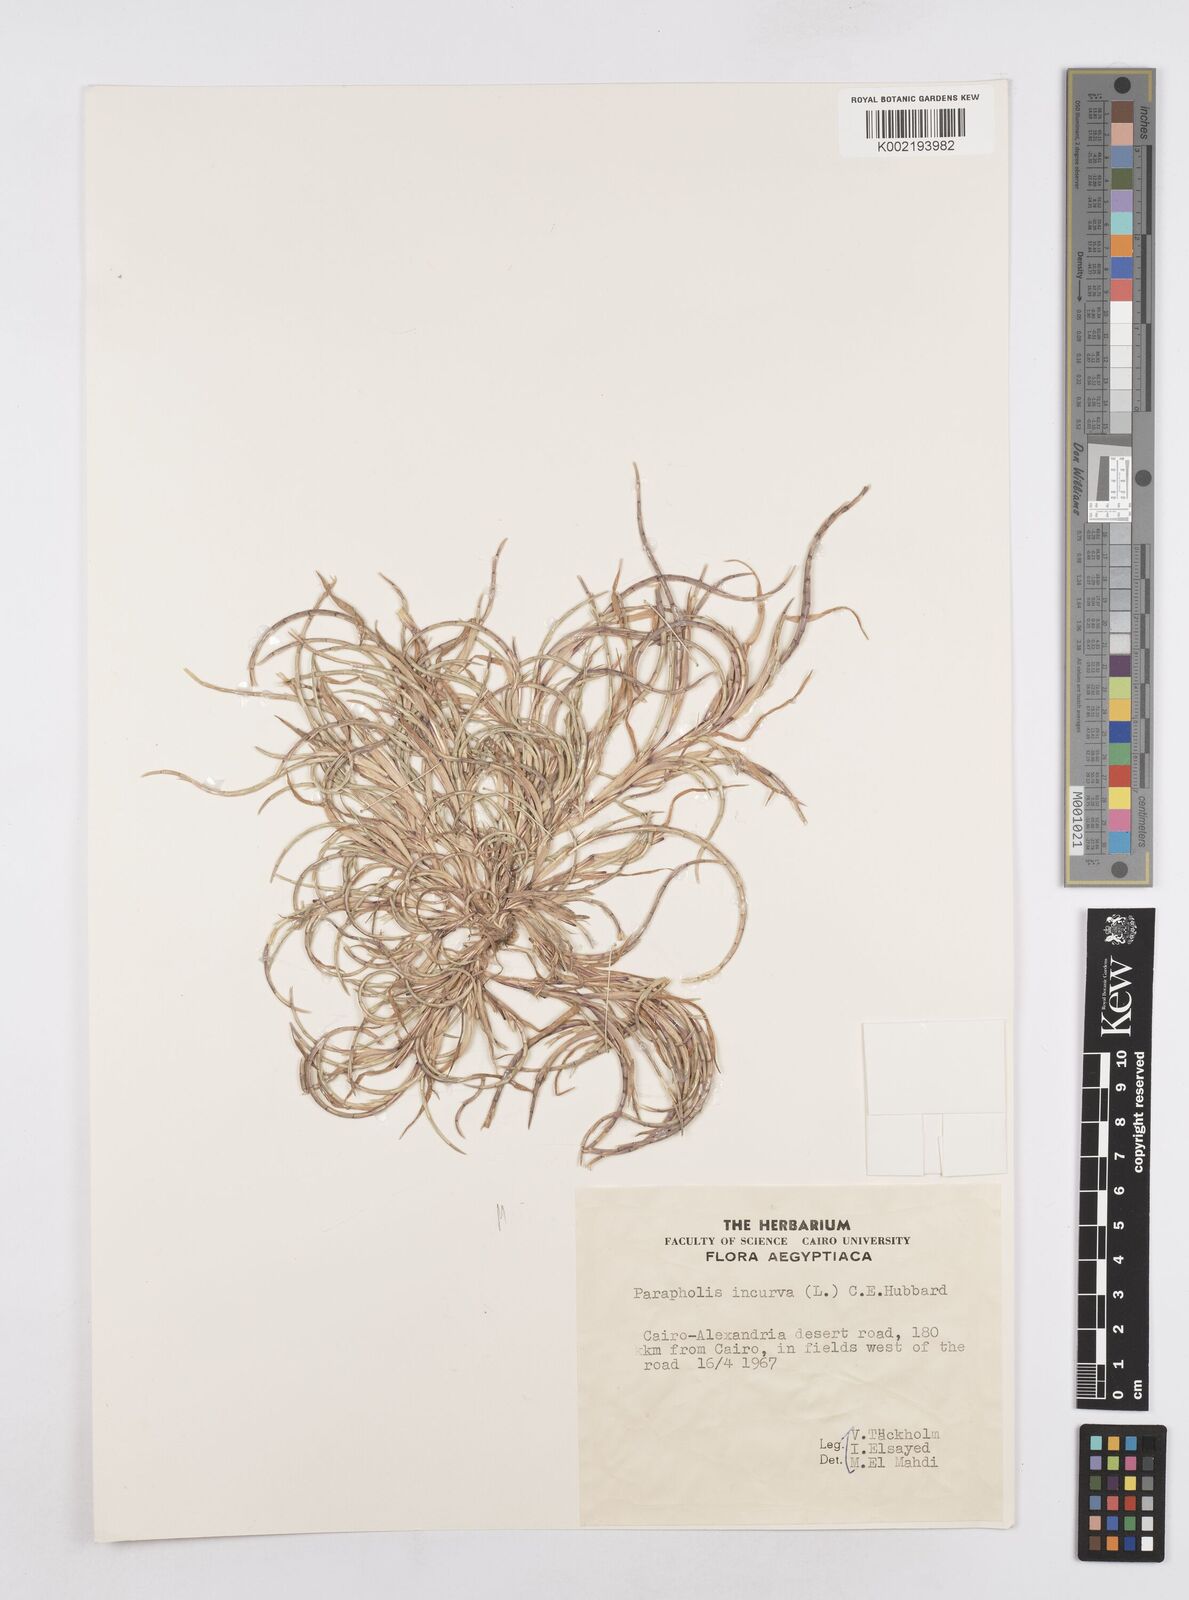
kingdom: Plantae
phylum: Tracheophyta
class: Liliopsida
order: Poales
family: Poaceae
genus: Parapholis
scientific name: Parapholis incurva
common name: Curved sicklegrass
